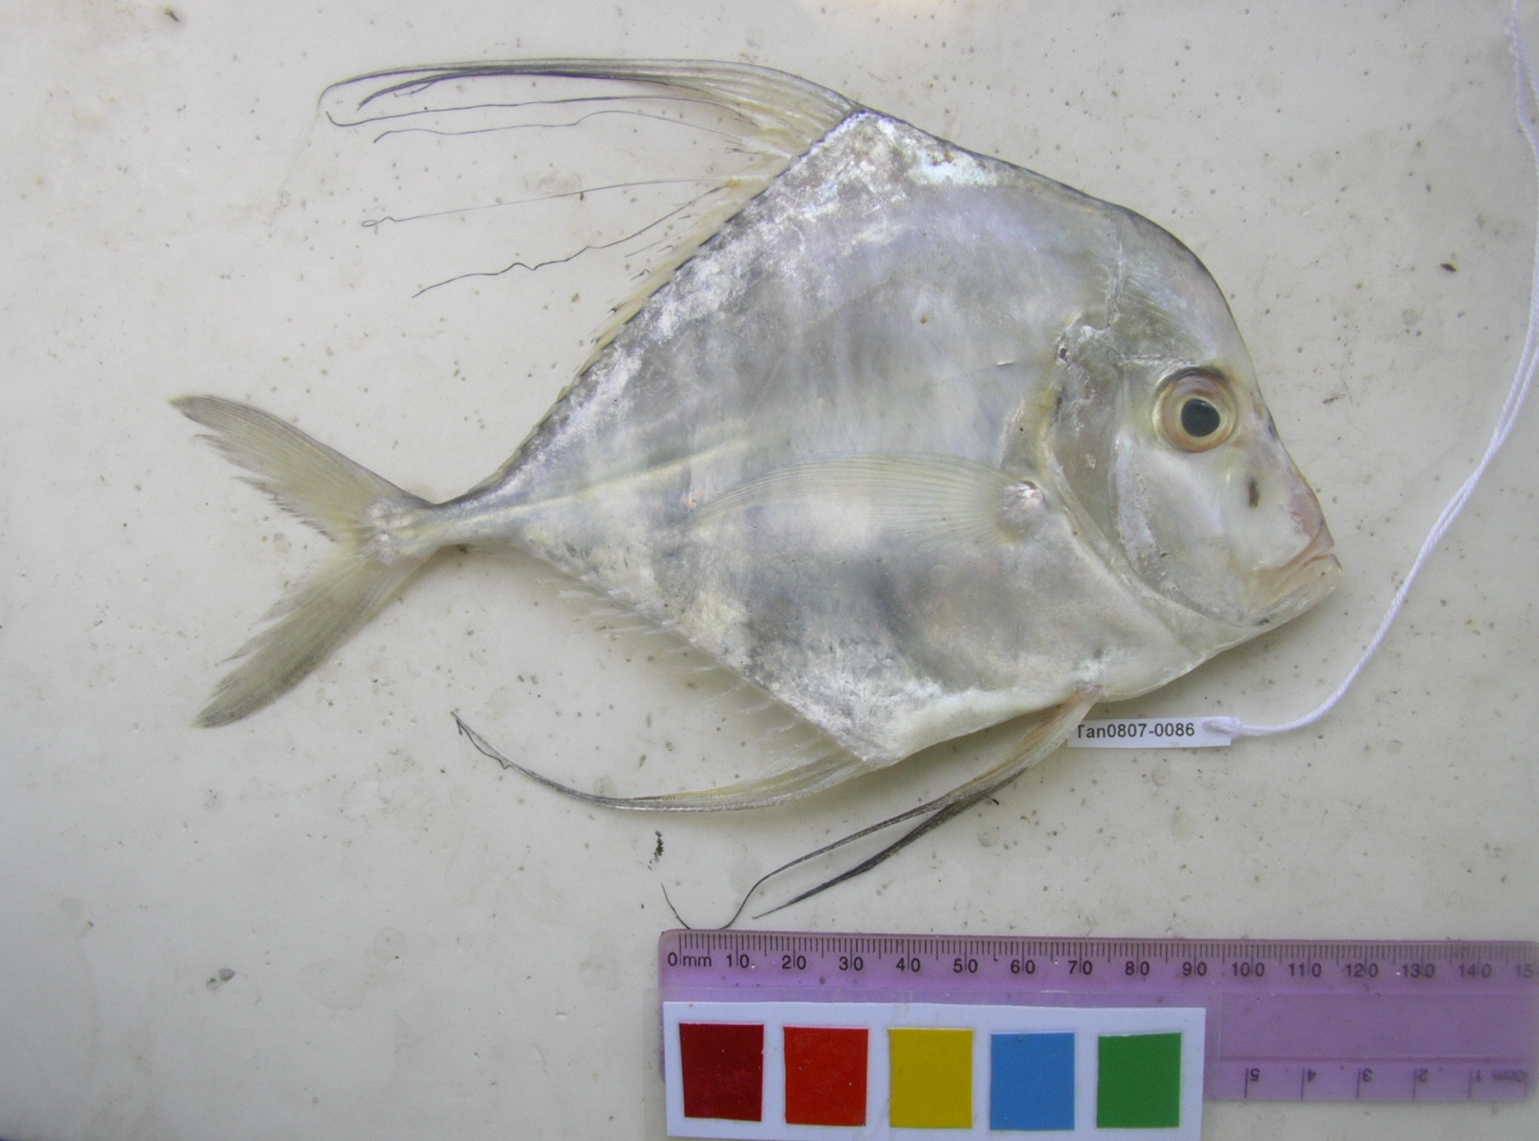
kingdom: Animalia
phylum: Chordata
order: Perciformes
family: Carangidae
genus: Alectis
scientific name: Alectis indica
